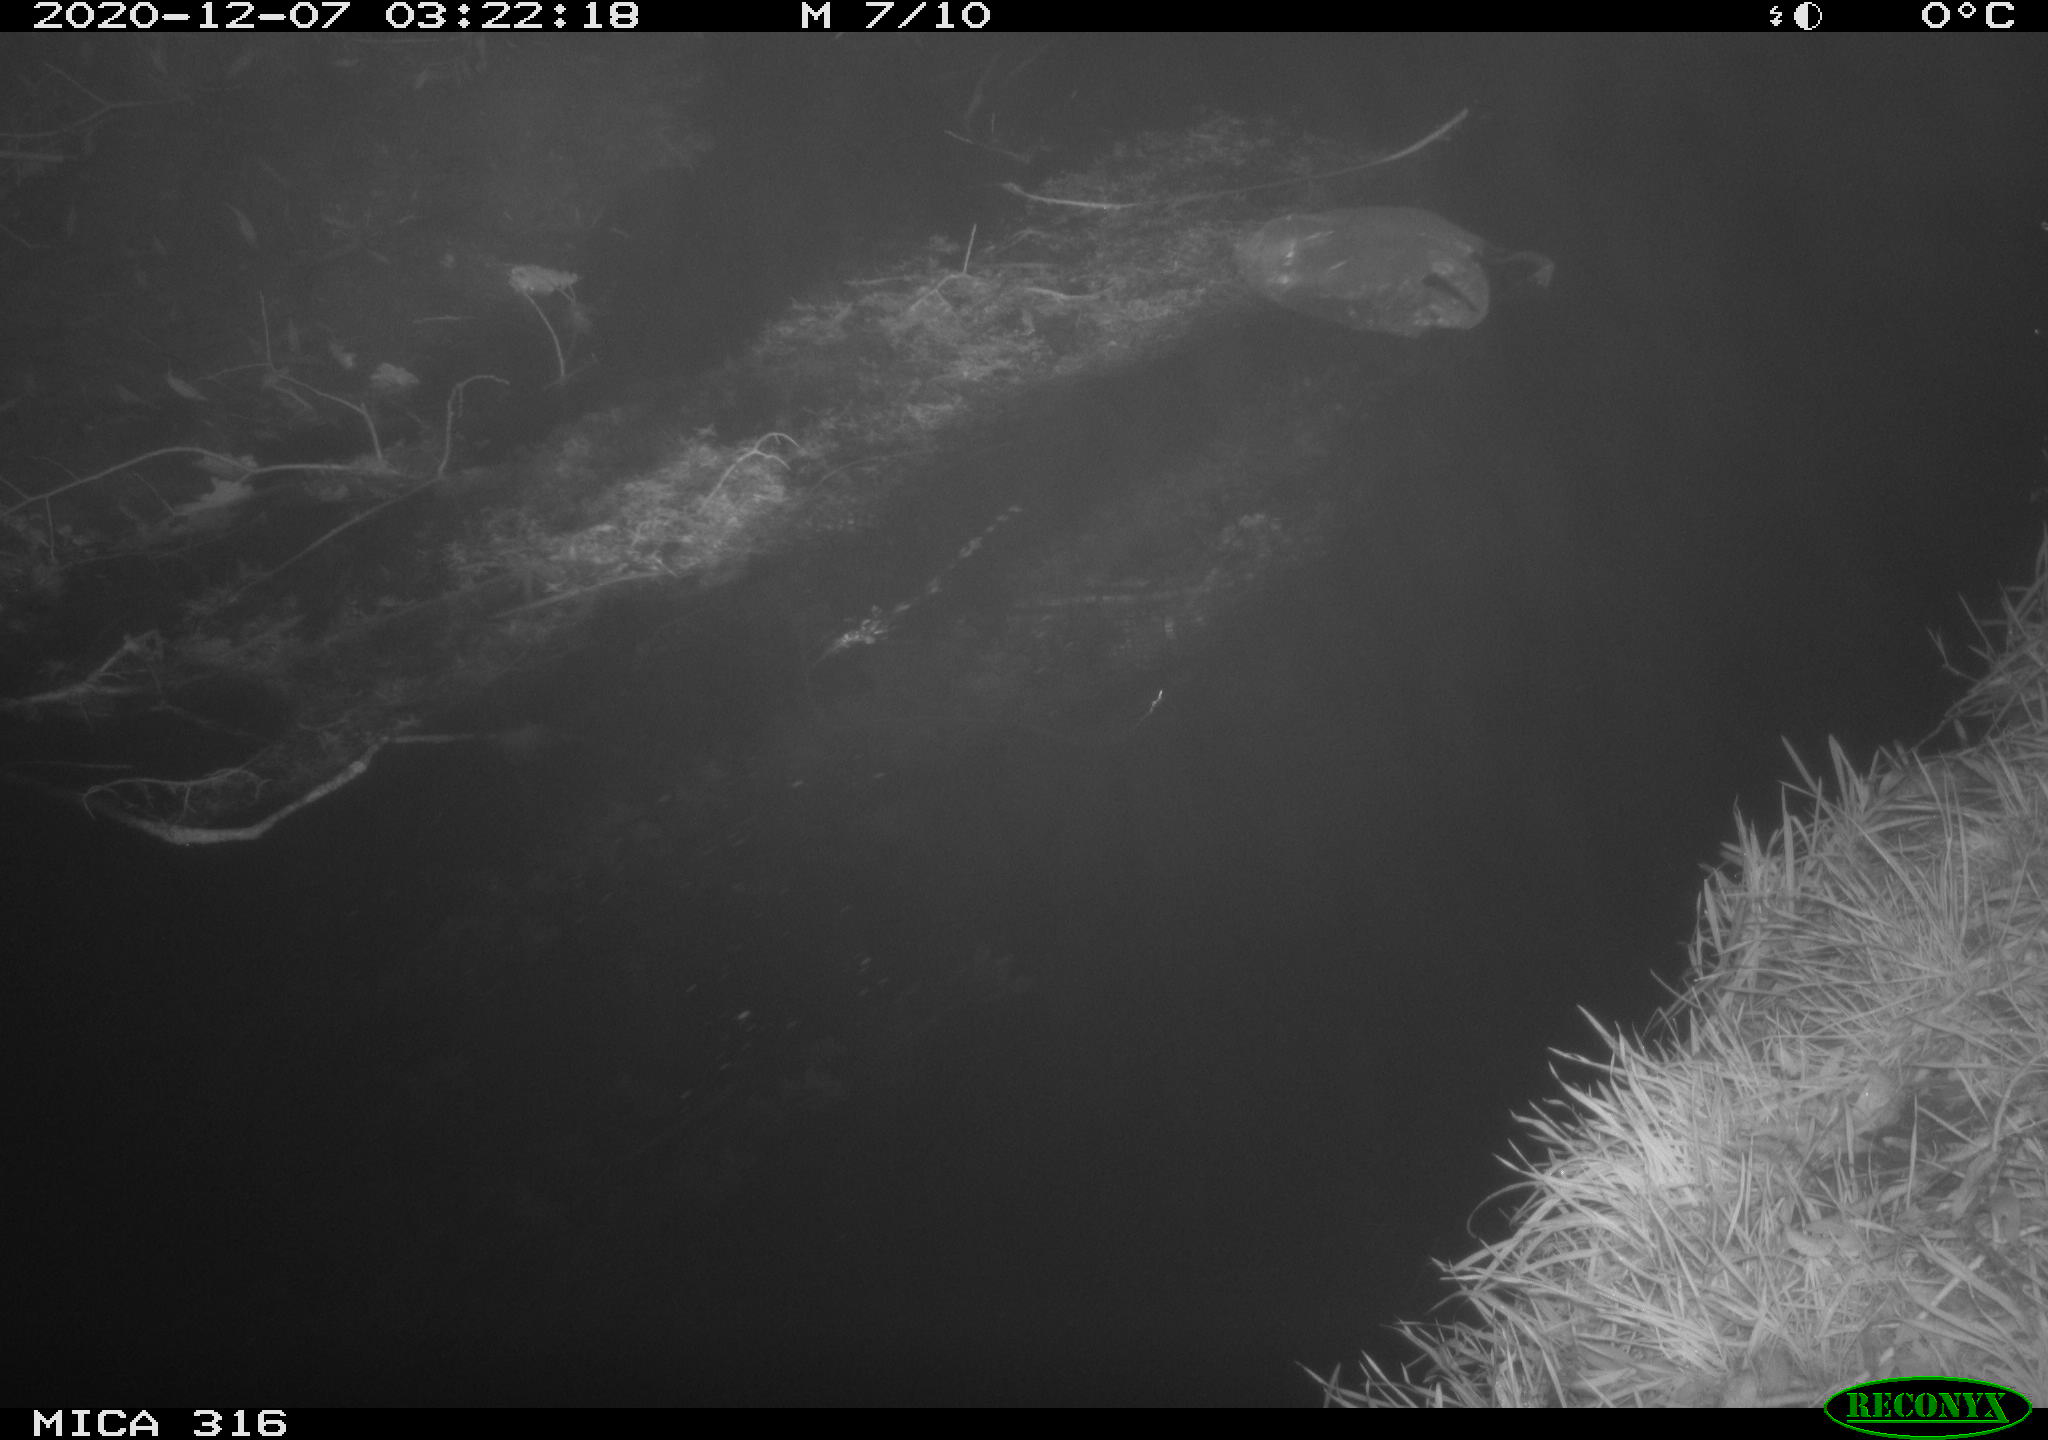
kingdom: Animalia
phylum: Chordata
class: Aves
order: Gruiformes
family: Rallidae
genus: Gallinula
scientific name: Gallinula chloropus
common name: Common moorhen
